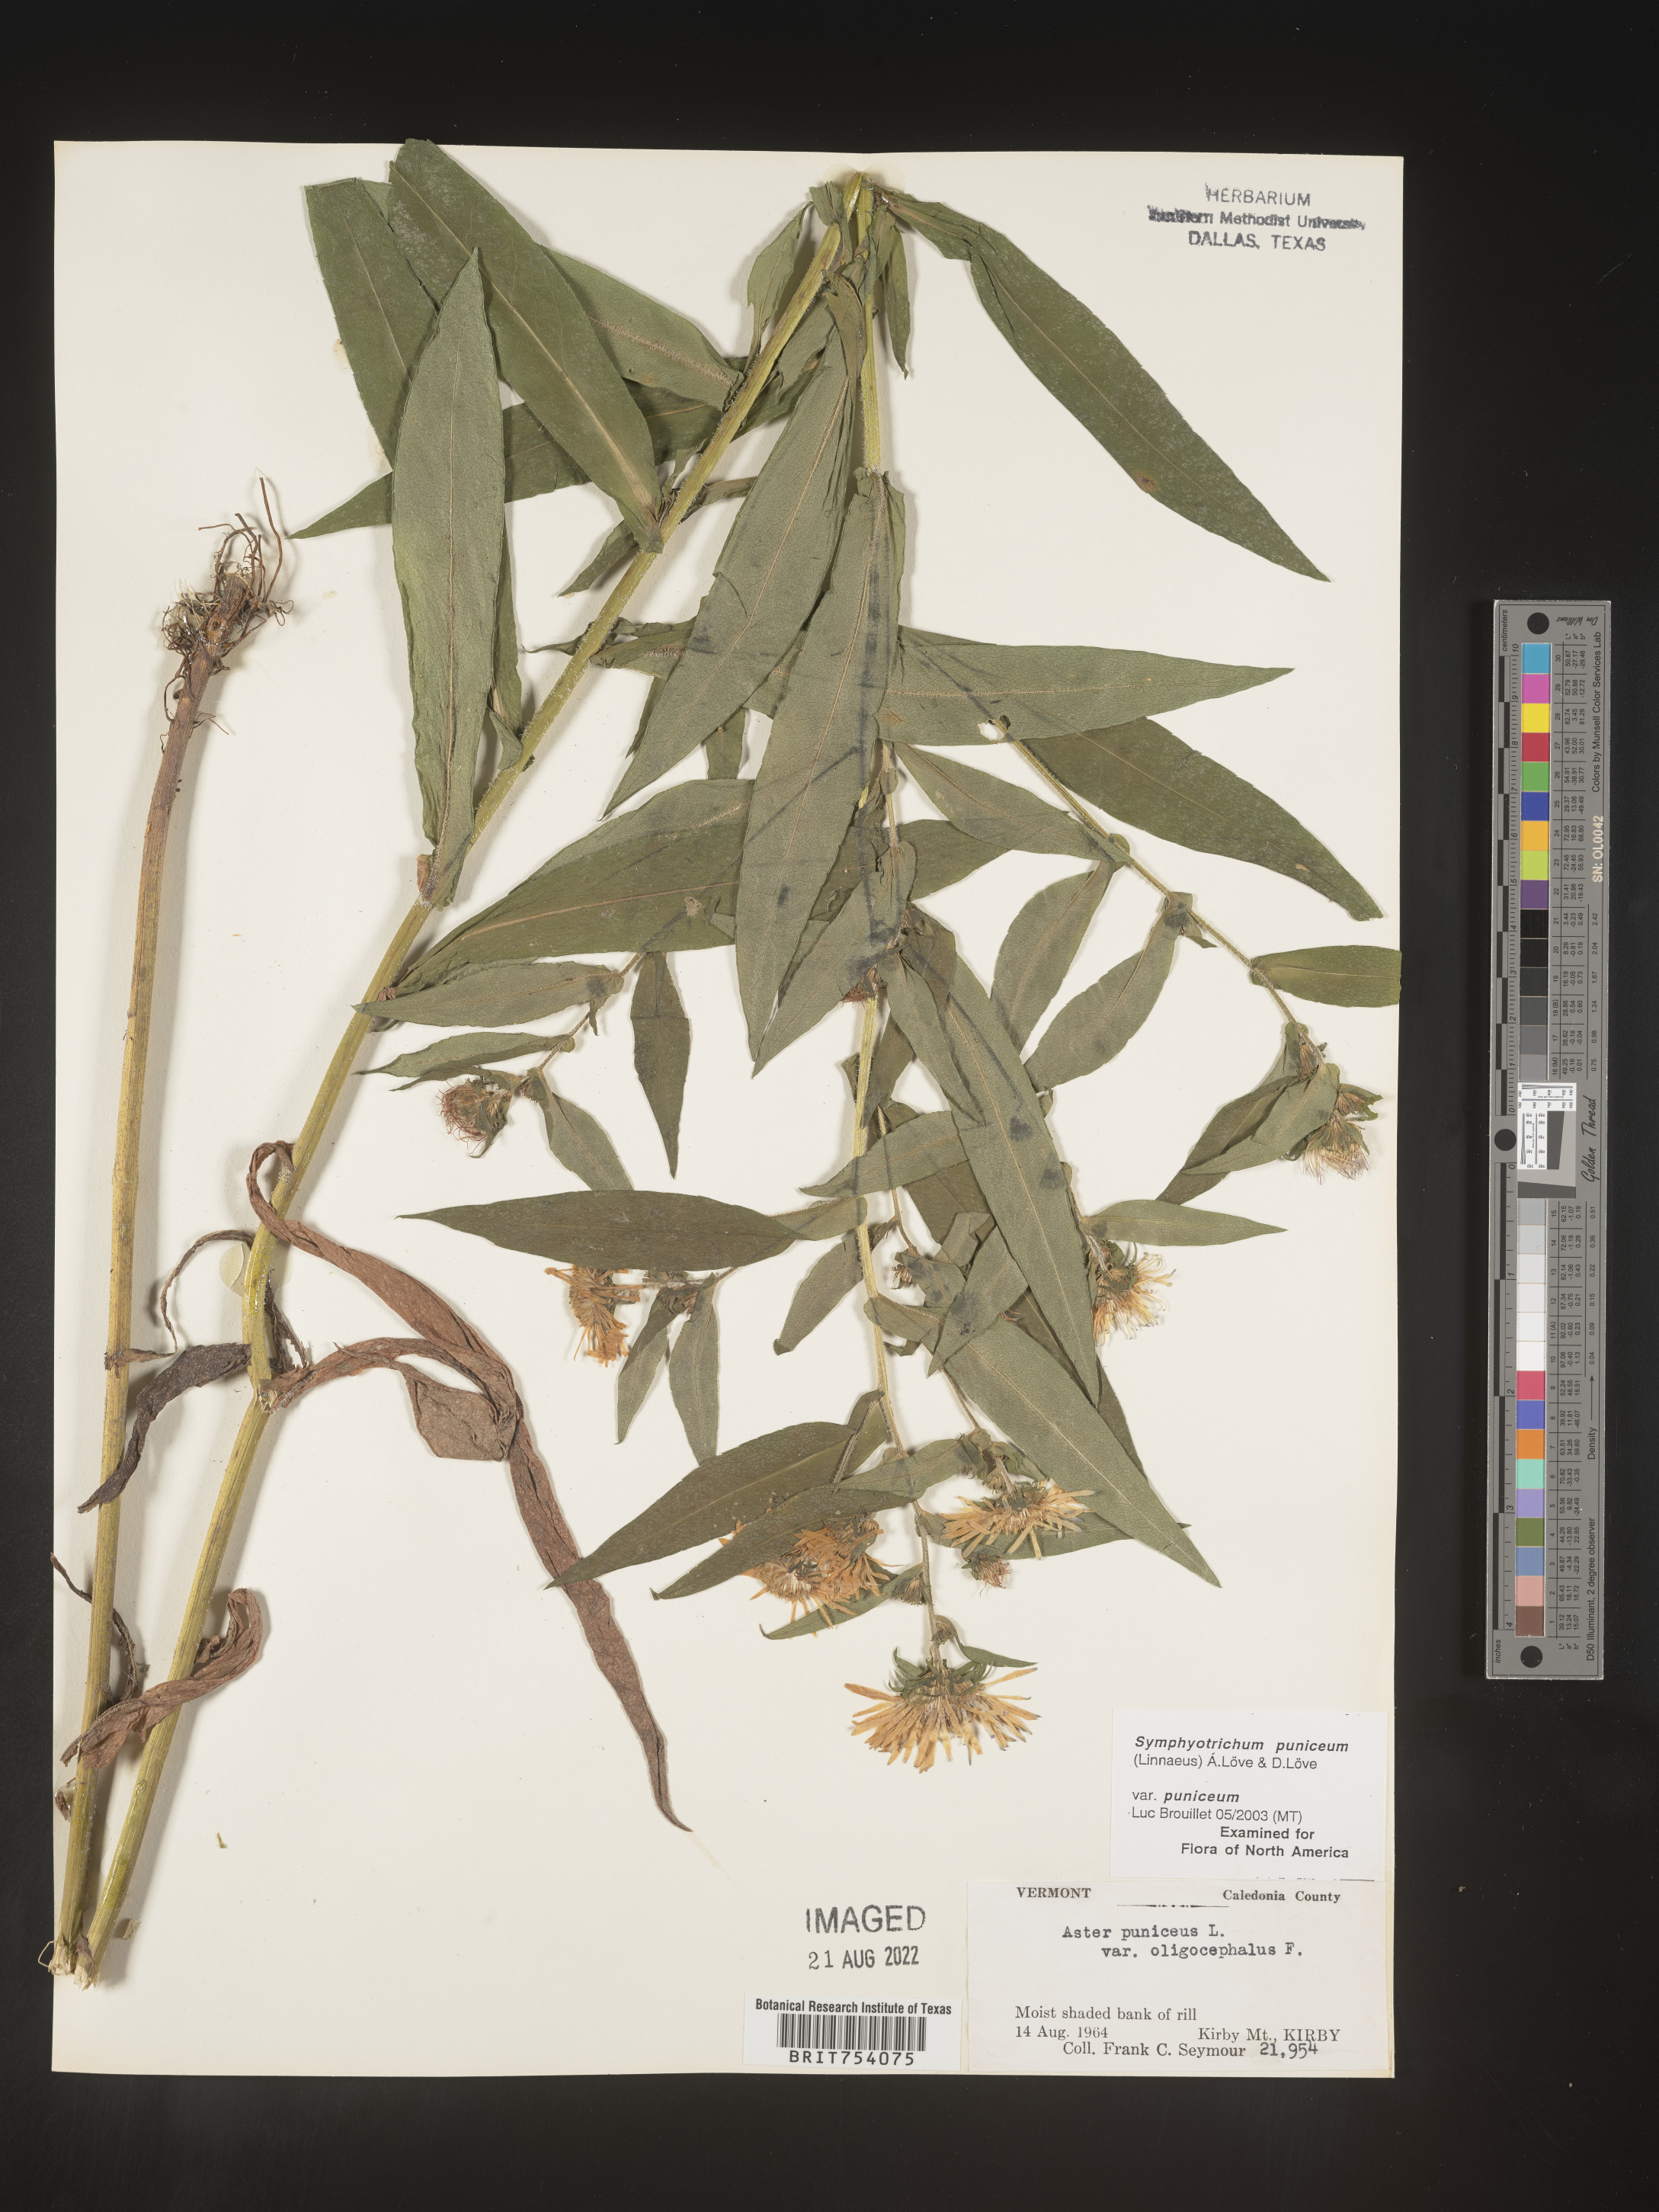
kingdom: Plantae
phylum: Tracheophyta
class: Magnoliopsida
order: Asterales
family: Asteraceae
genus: Symphyotrichum
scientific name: Symphyotrichum puniceum
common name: Bog aster
